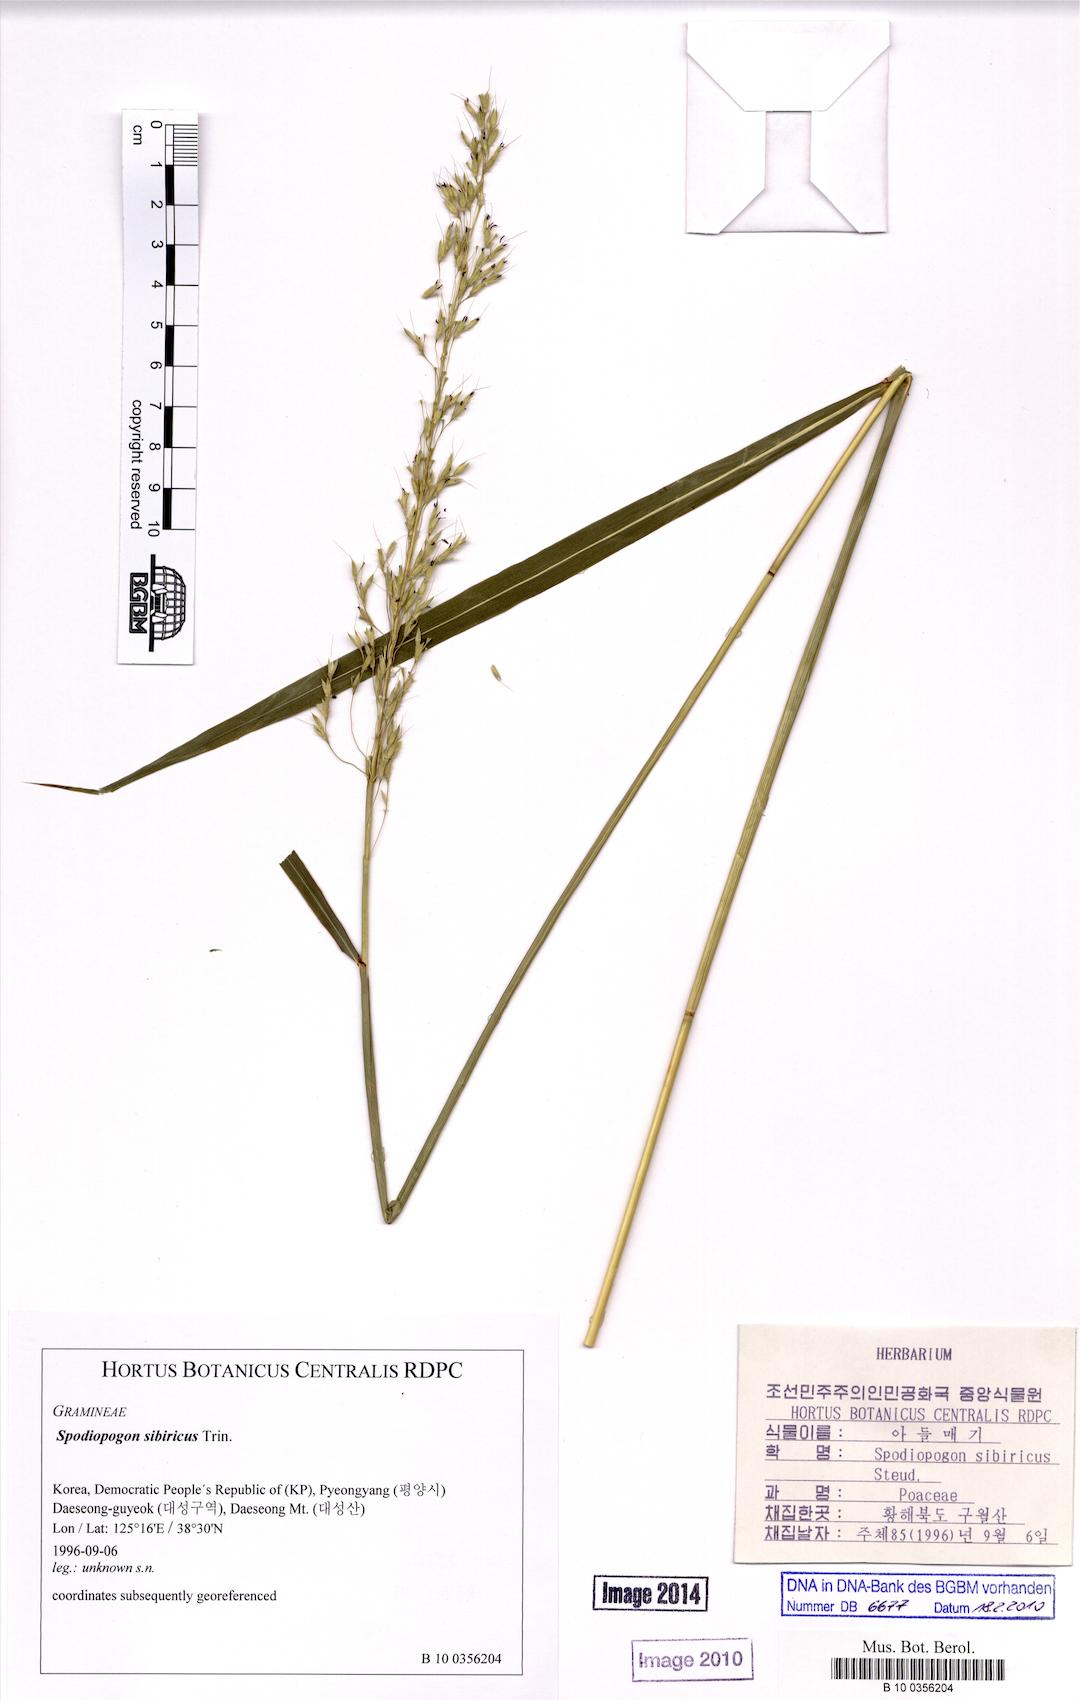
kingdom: Plantae
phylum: Tracheophyta
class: Liliopsida
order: Poales
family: Poaceae
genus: Spodiopogon
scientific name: Spodiopogon sibiricus
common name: Siberian graybeard
